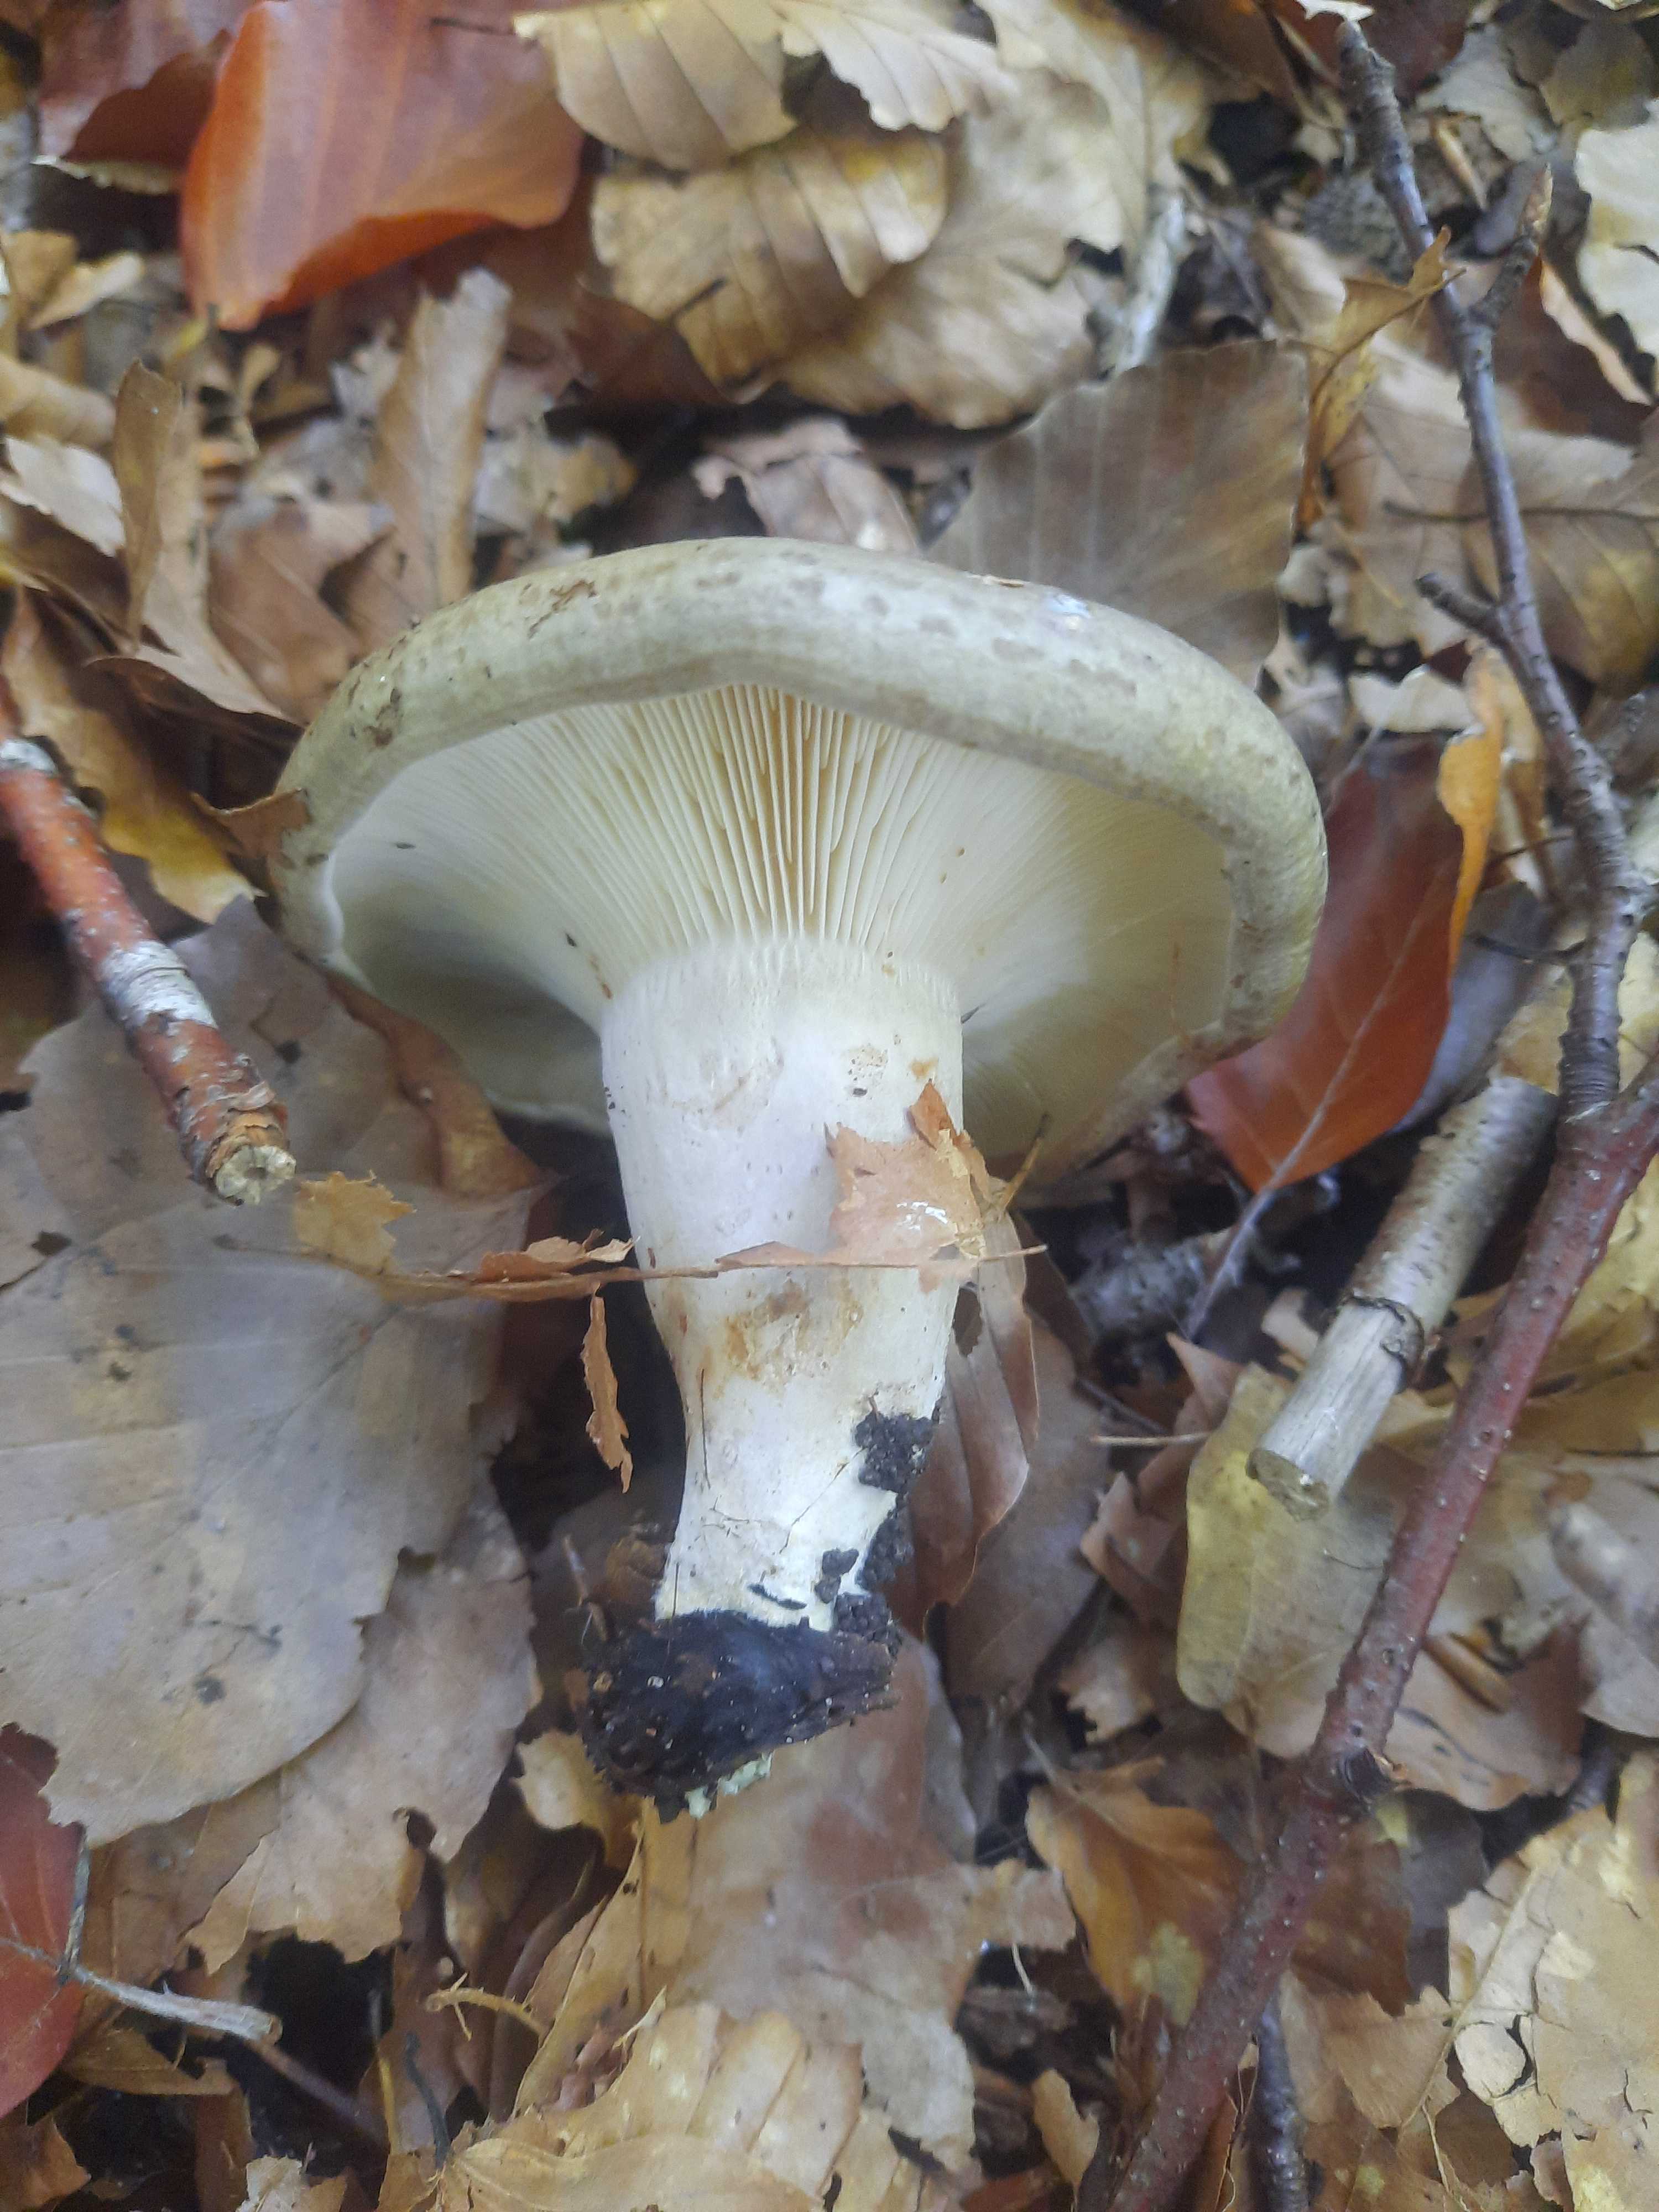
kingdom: Fungi
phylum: Basidiomycota
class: Agaricomycetes
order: Russulales
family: Russulaceae
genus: Lactarius
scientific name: Lactarius blennius
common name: dråbeplettet mælkehat
